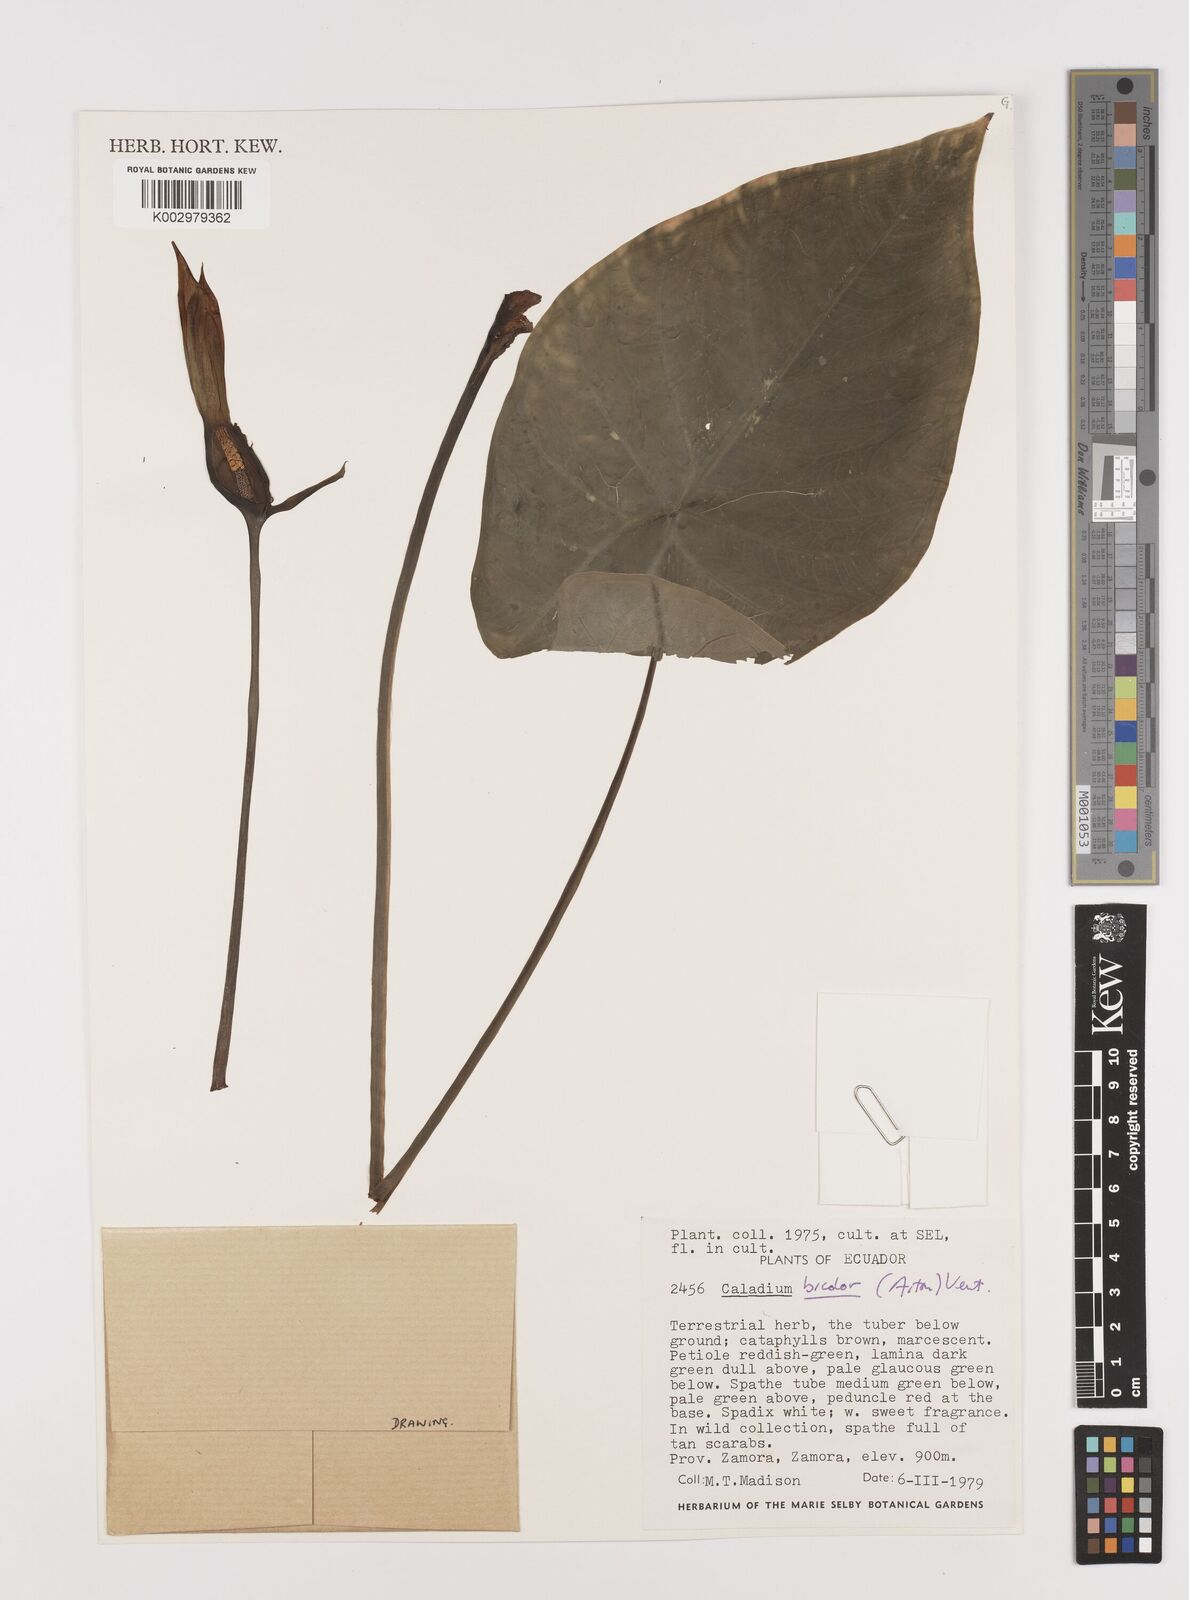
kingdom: Plantae
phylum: Tracheophyta
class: Liliopsida
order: Alismatales
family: Araceae
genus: Caladium
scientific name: Caladium bicolor
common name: Artist's pallet
